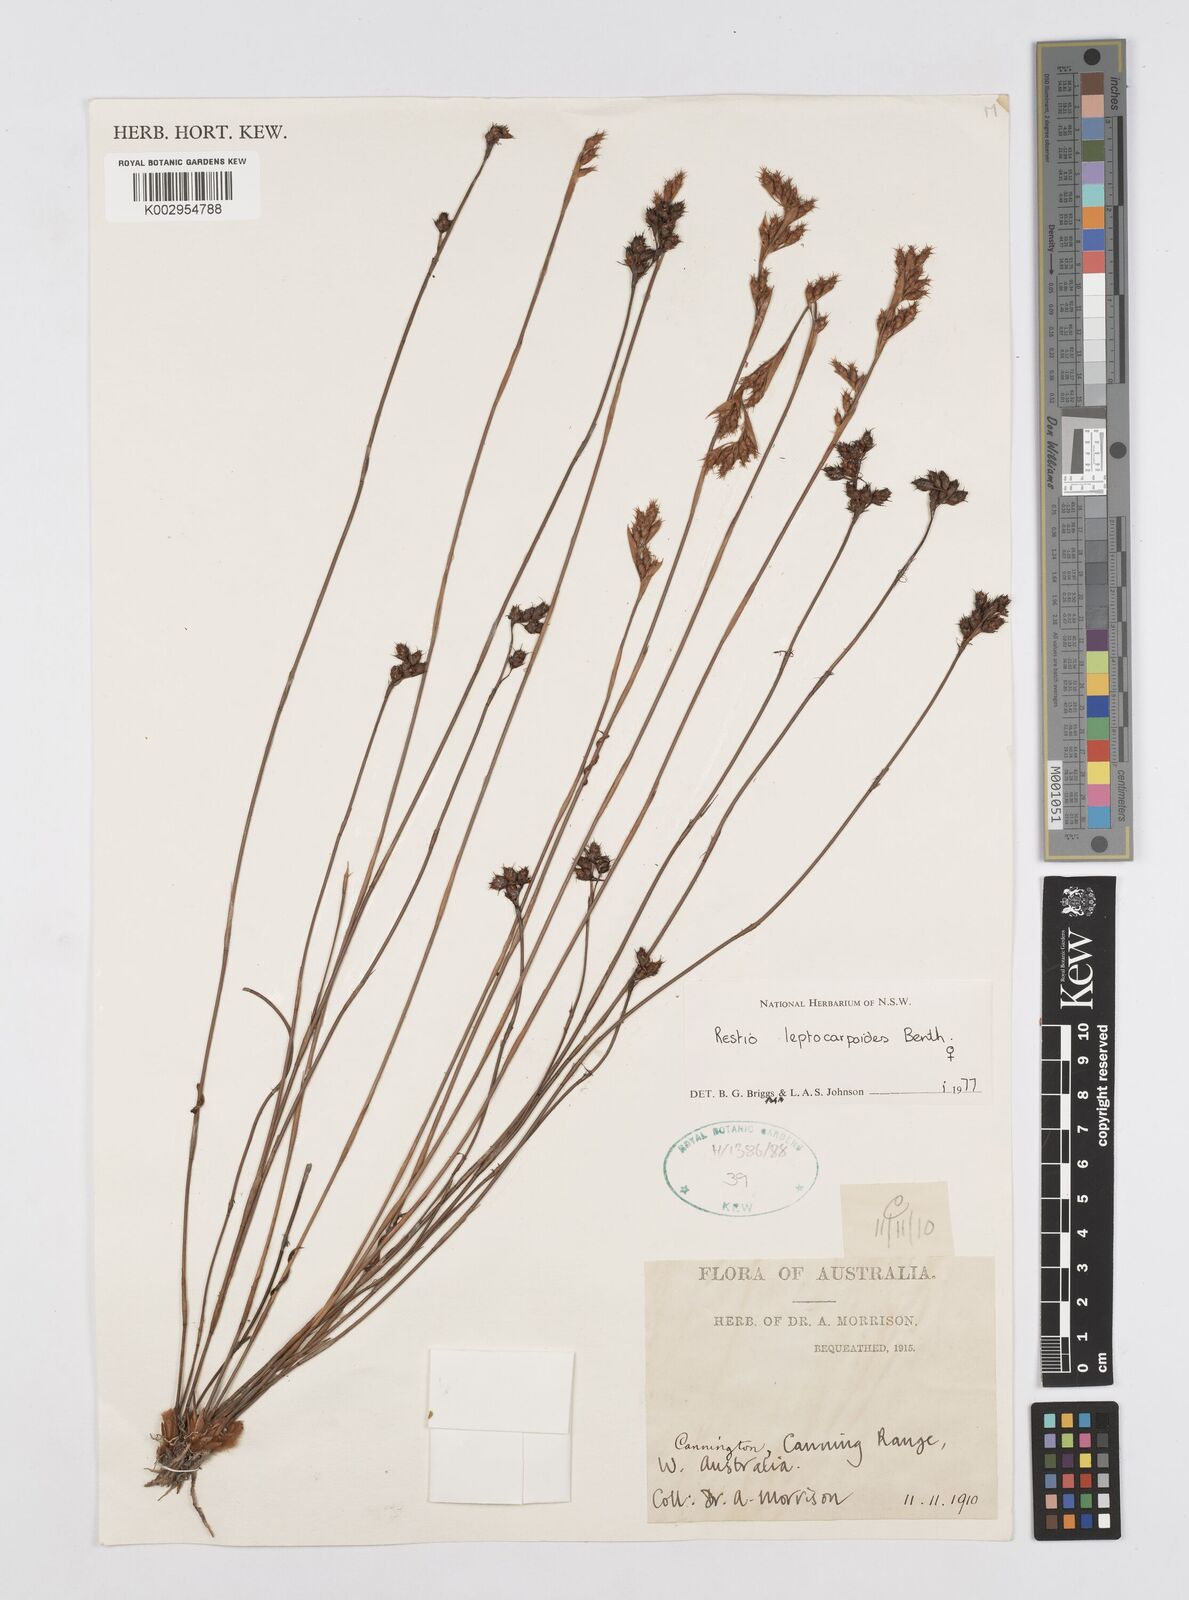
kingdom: Plantae
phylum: Tracheophyta
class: Liliopsida
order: Poales
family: Restionaceae
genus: Cytogonidium
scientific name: Cytogonidium leptocarpoides
